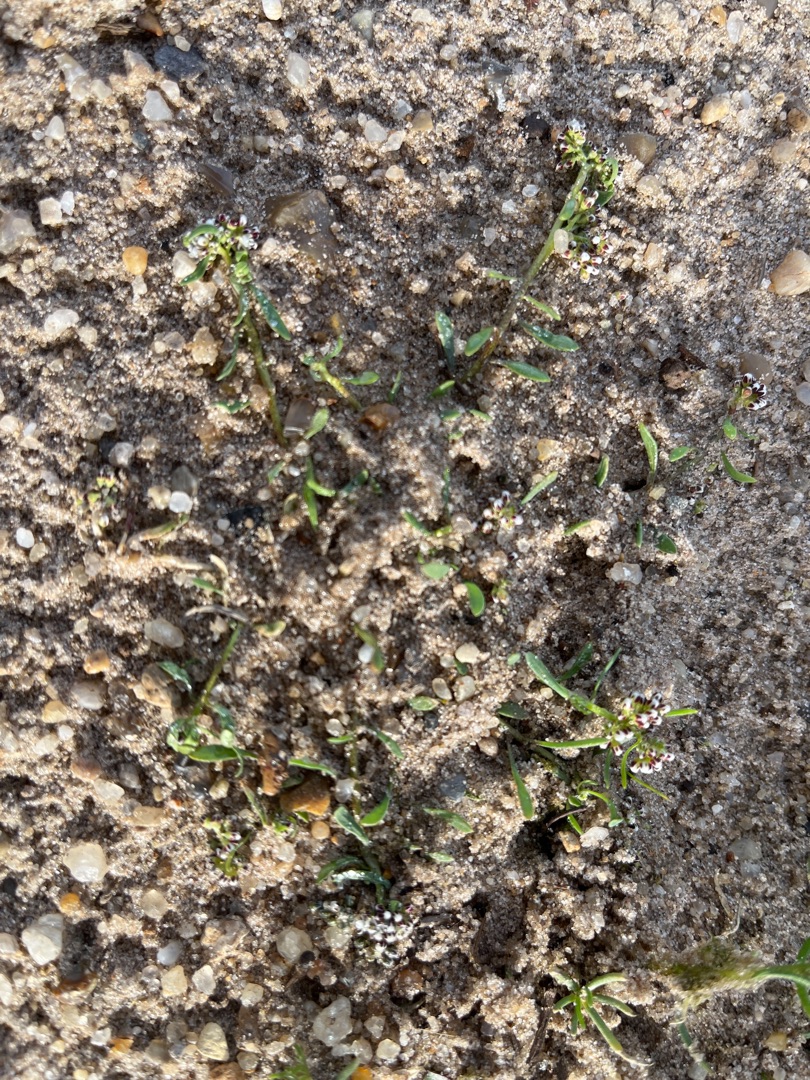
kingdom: Plantae
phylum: Tracheophyta
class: Magnoliopsida
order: Caryophyllales
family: Caryophyllaceae
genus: Corrigiola
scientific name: Corrigiola litoralis
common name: Skorem
